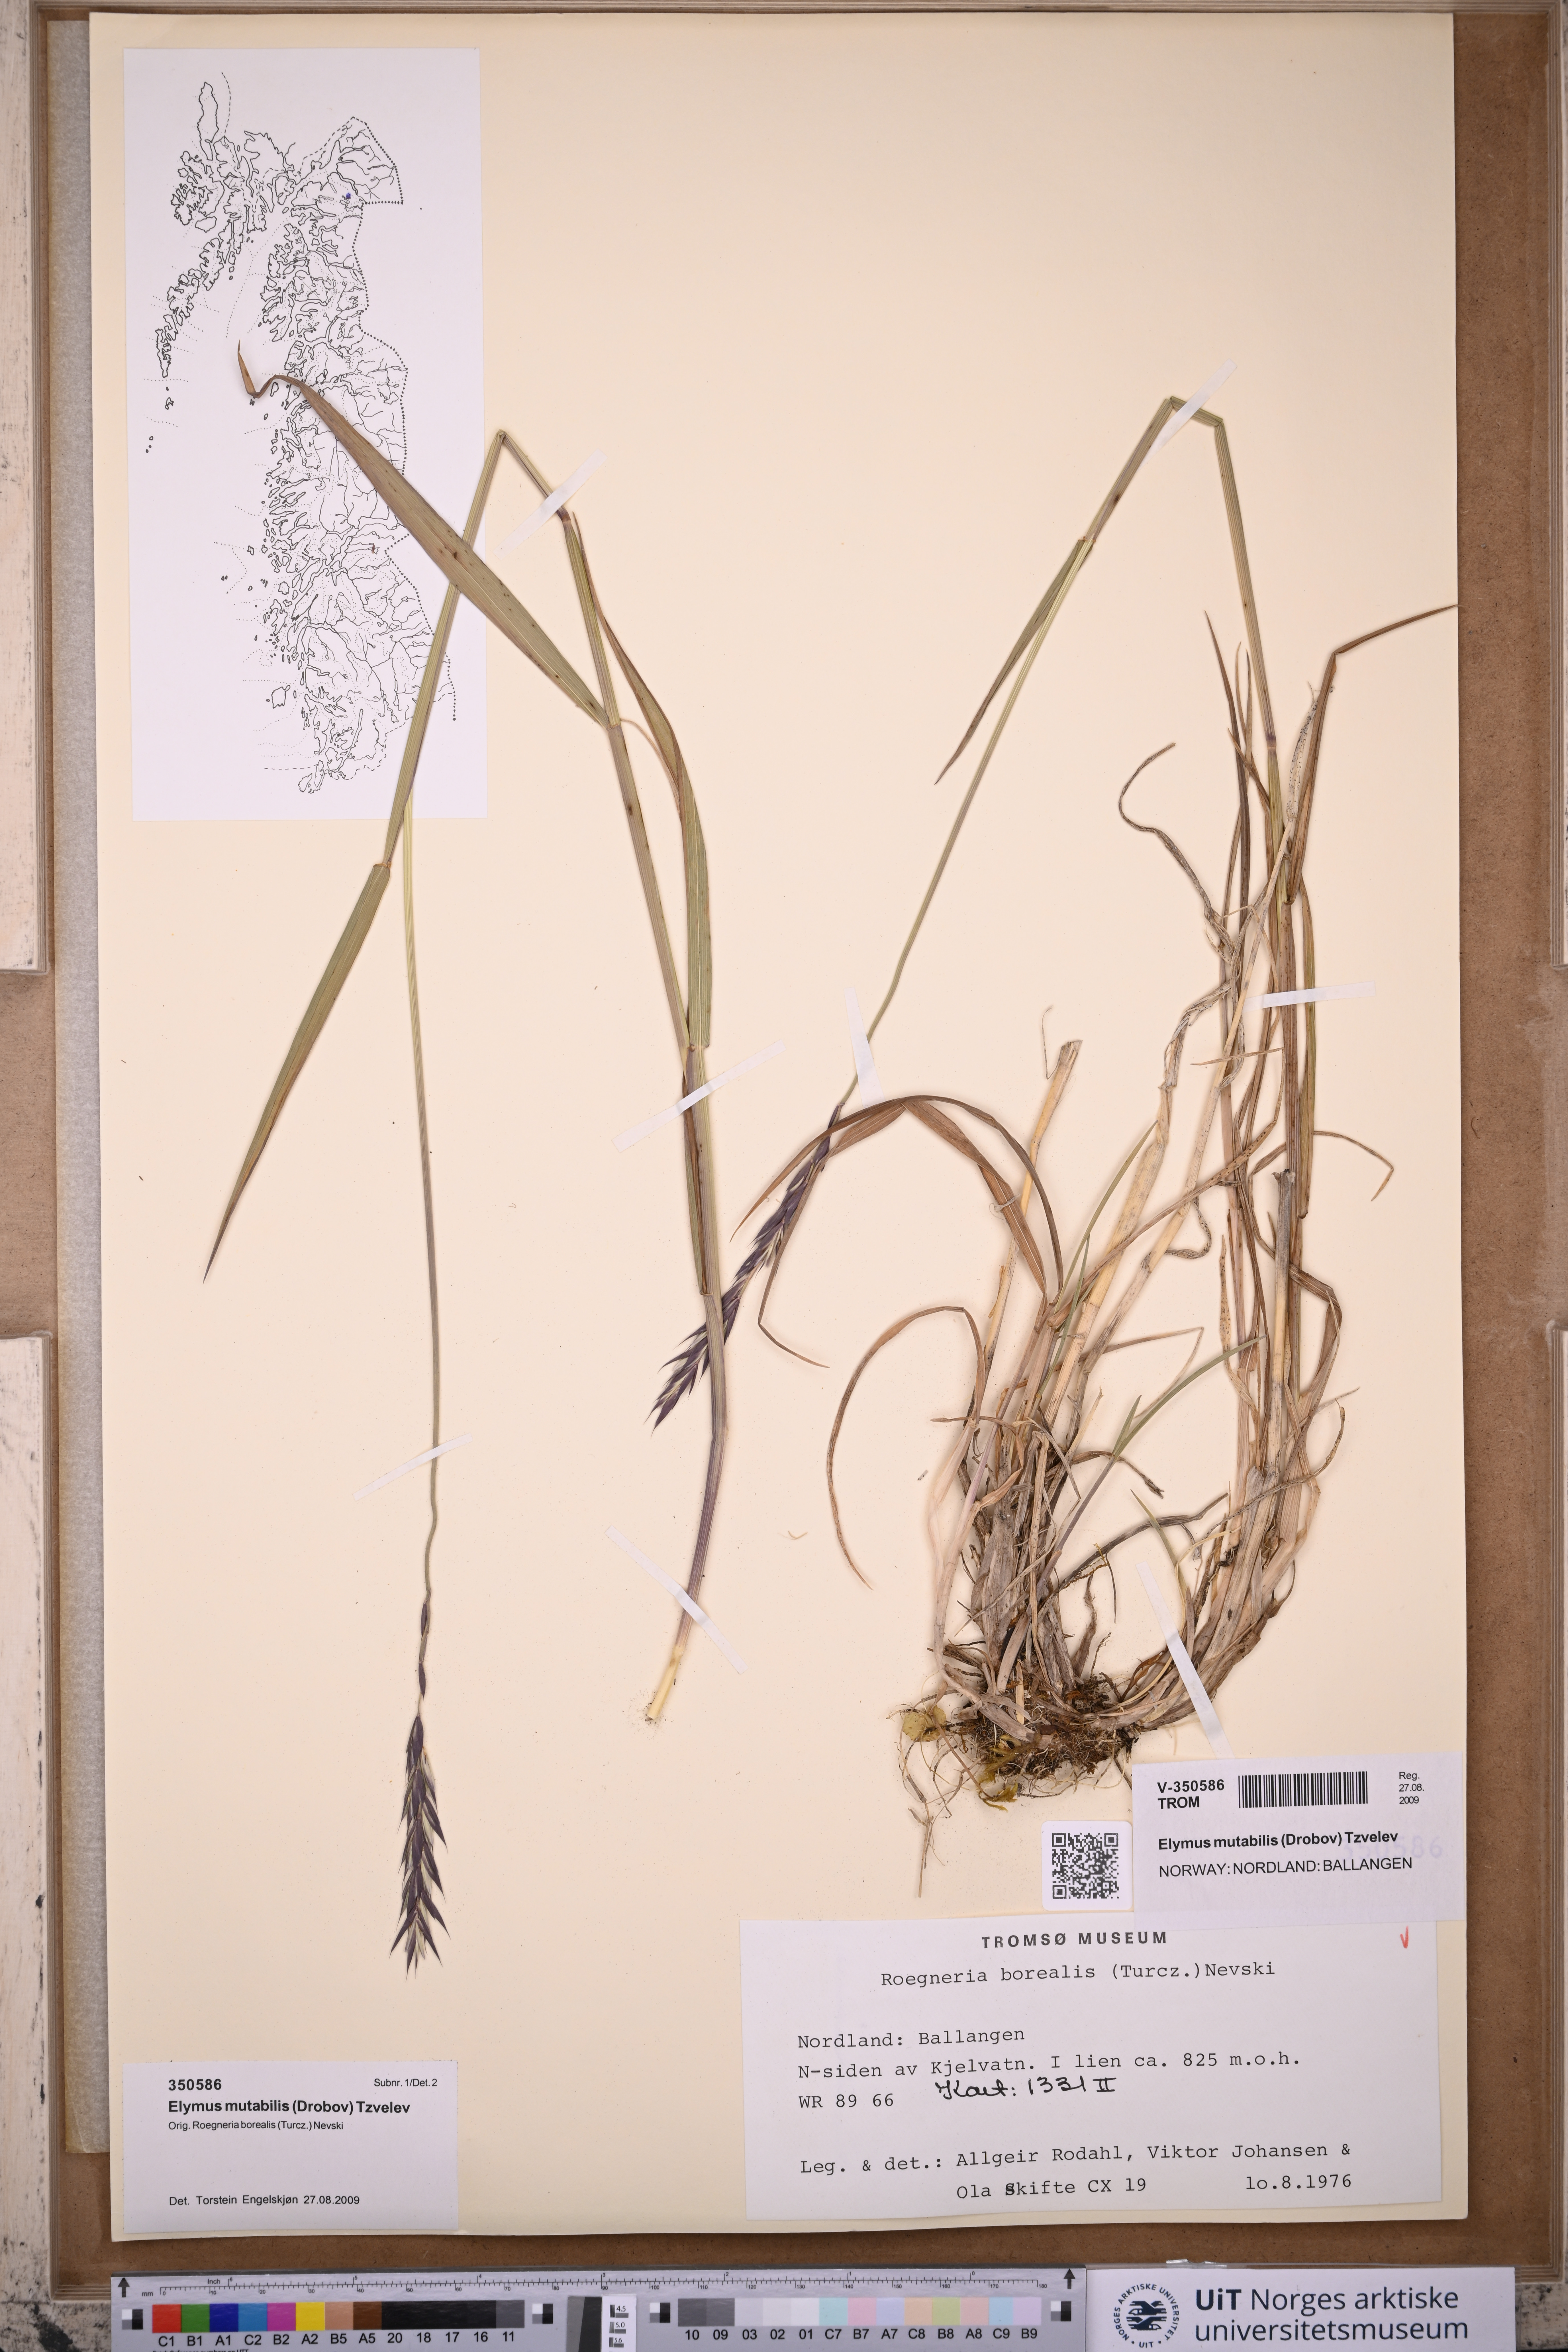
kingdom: Plantae
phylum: Tracheophyta
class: Liliopsida
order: Poales
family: Poaceae
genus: Elymus
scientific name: Elymus mutabilis
